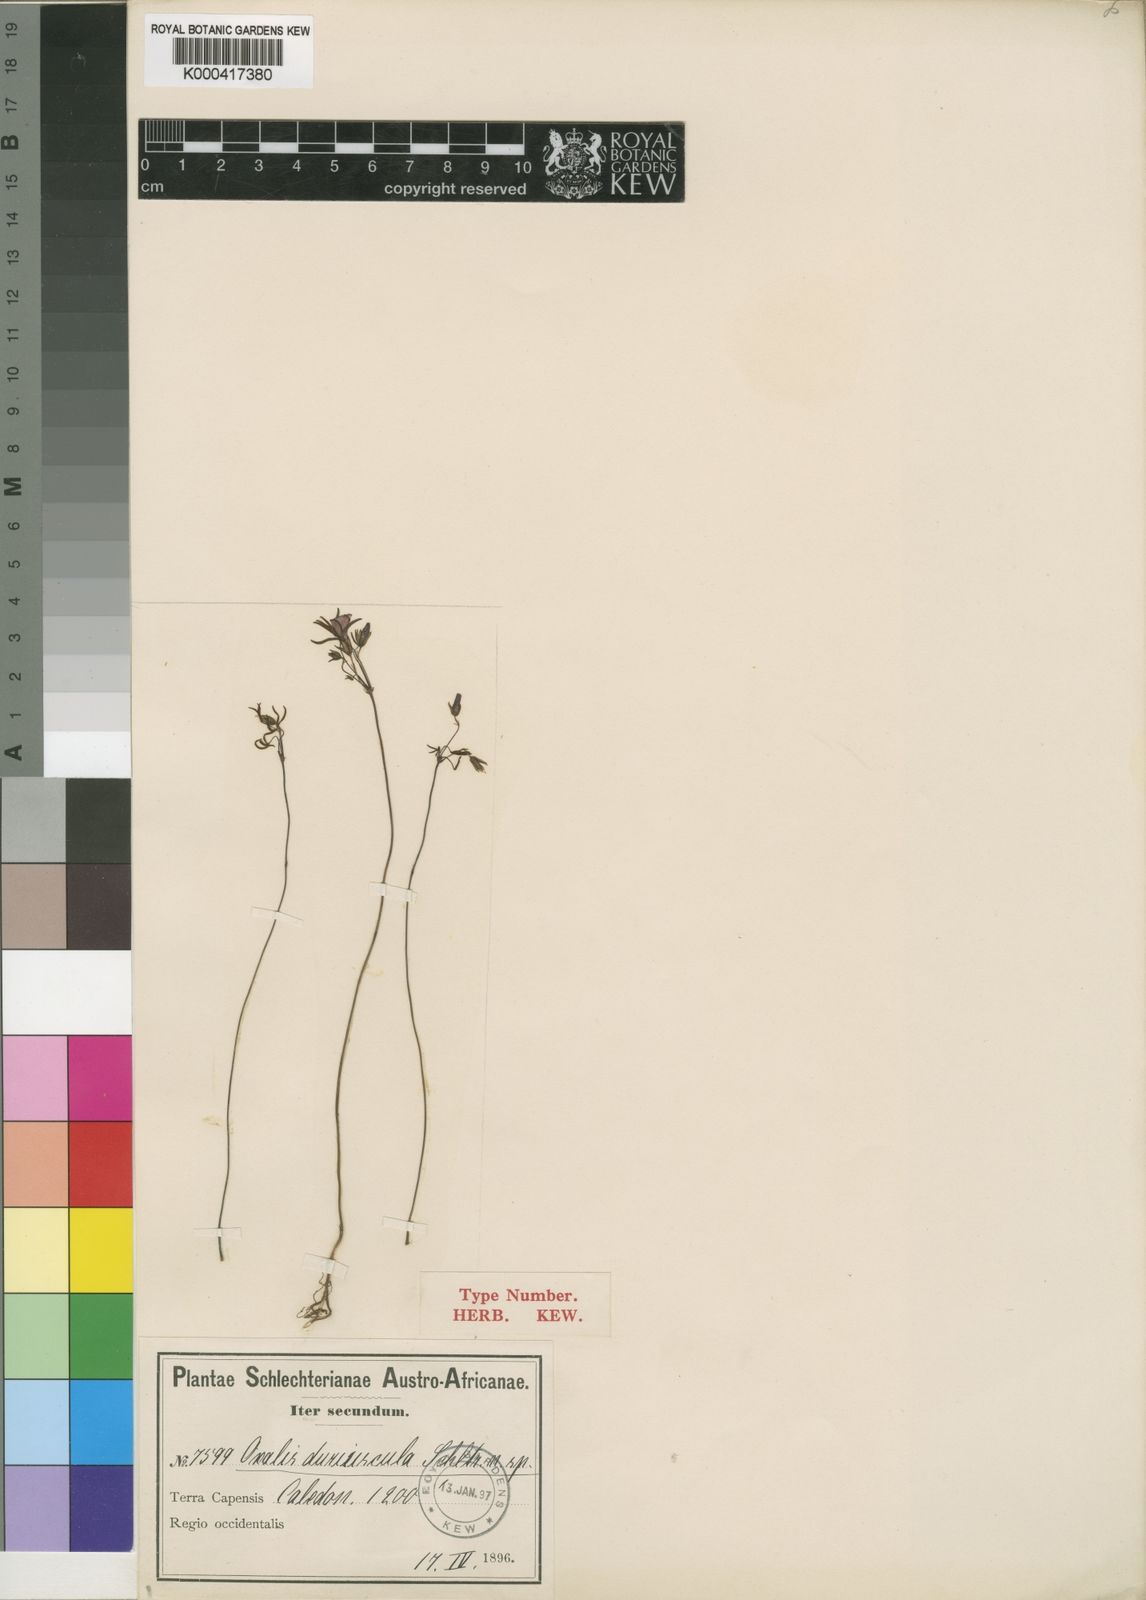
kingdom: Plantae
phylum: Tracheophyta
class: Magnoliopsida
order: Oxalidales
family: Oxalidaceae
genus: Oxalis
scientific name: Oxalis duriuscula
